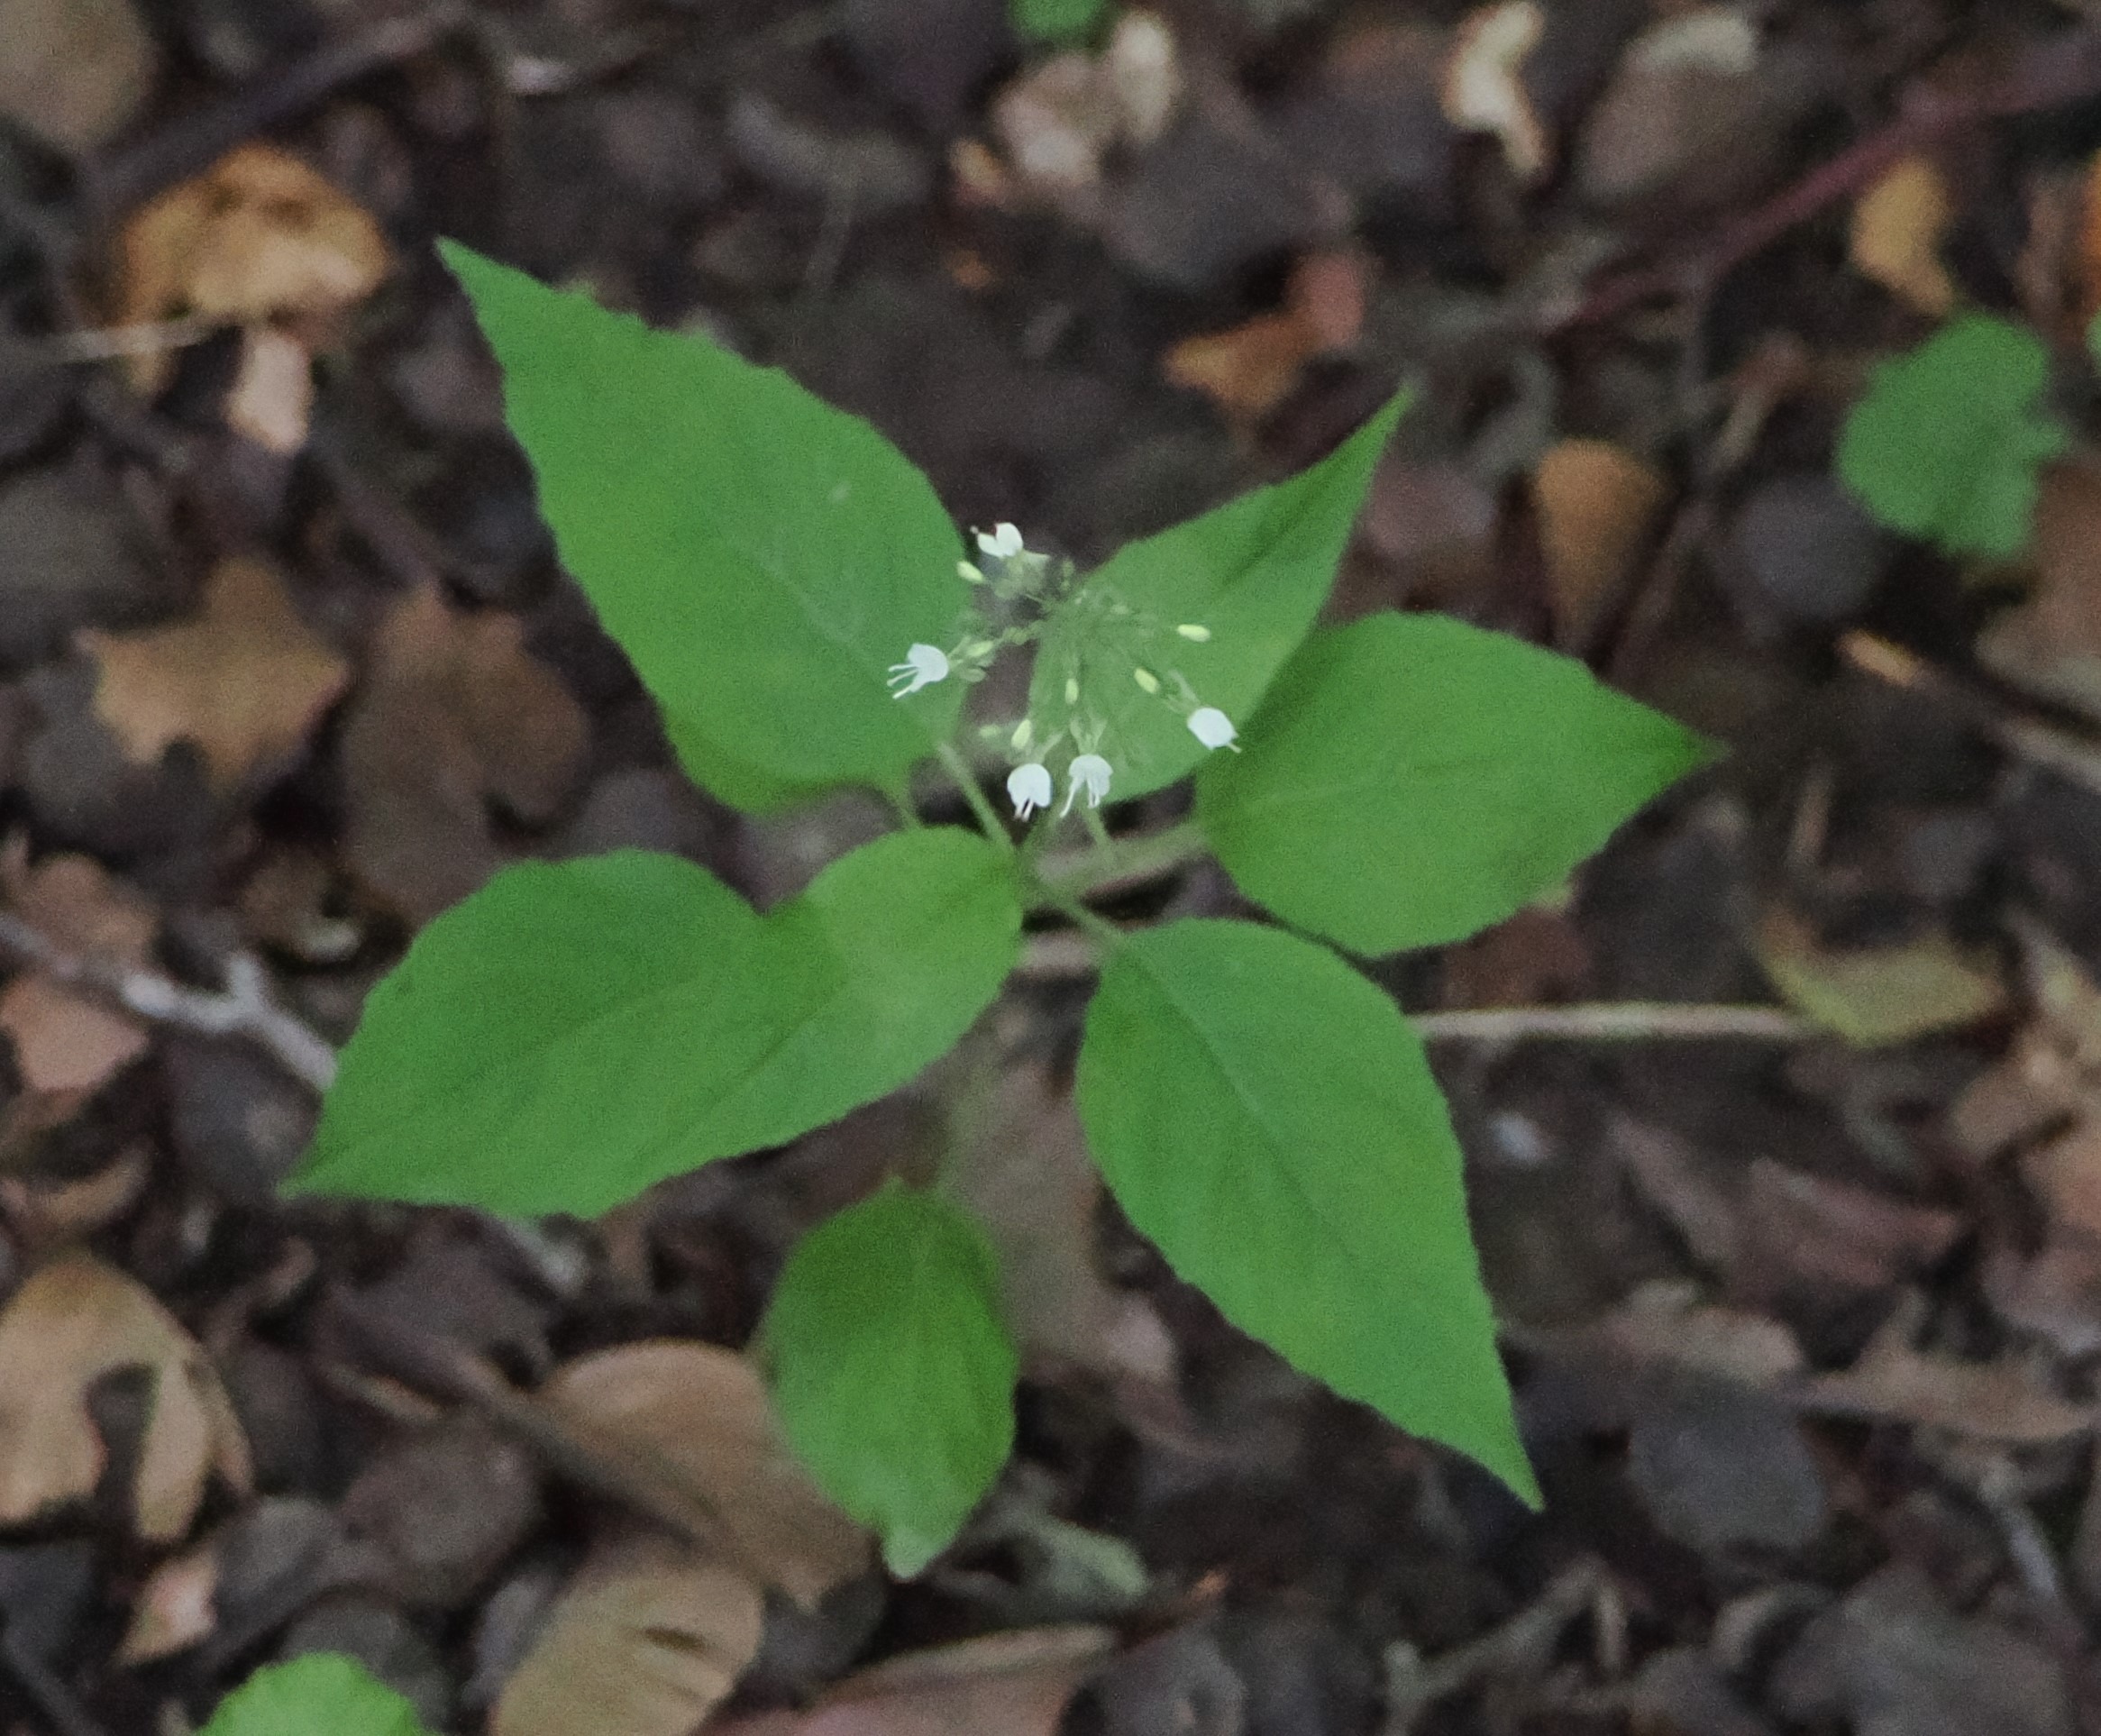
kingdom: Plantae
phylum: Tracheophyta
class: Magnoliopsida
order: Myrtales
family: Onagraceae
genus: Circaea
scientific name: Circaea lutetiana
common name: Dunet steffensurt
